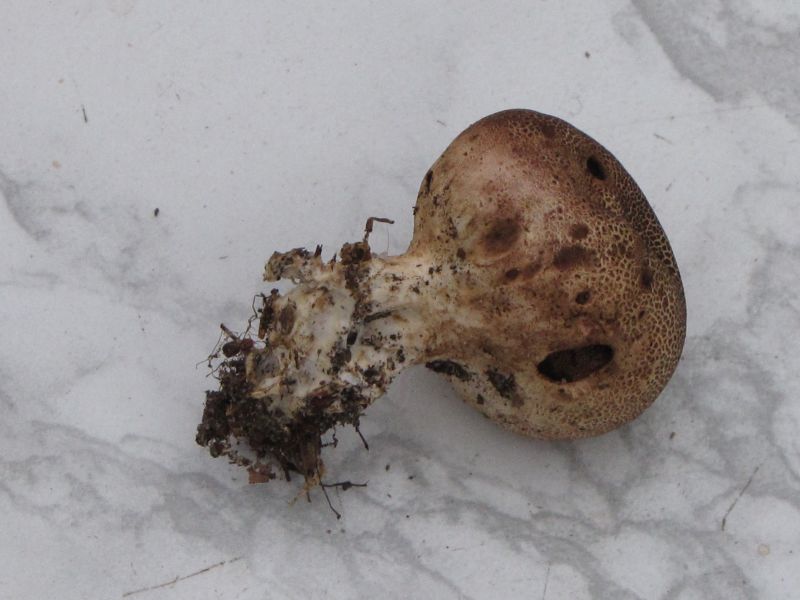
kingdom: Fungi
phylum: Basidiomycota
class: Agaricomycetes
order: Boletales
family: Sclerodermataceae
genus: Scleroderma
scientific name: Scleroderma areolatum
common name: plettet bruskbold
